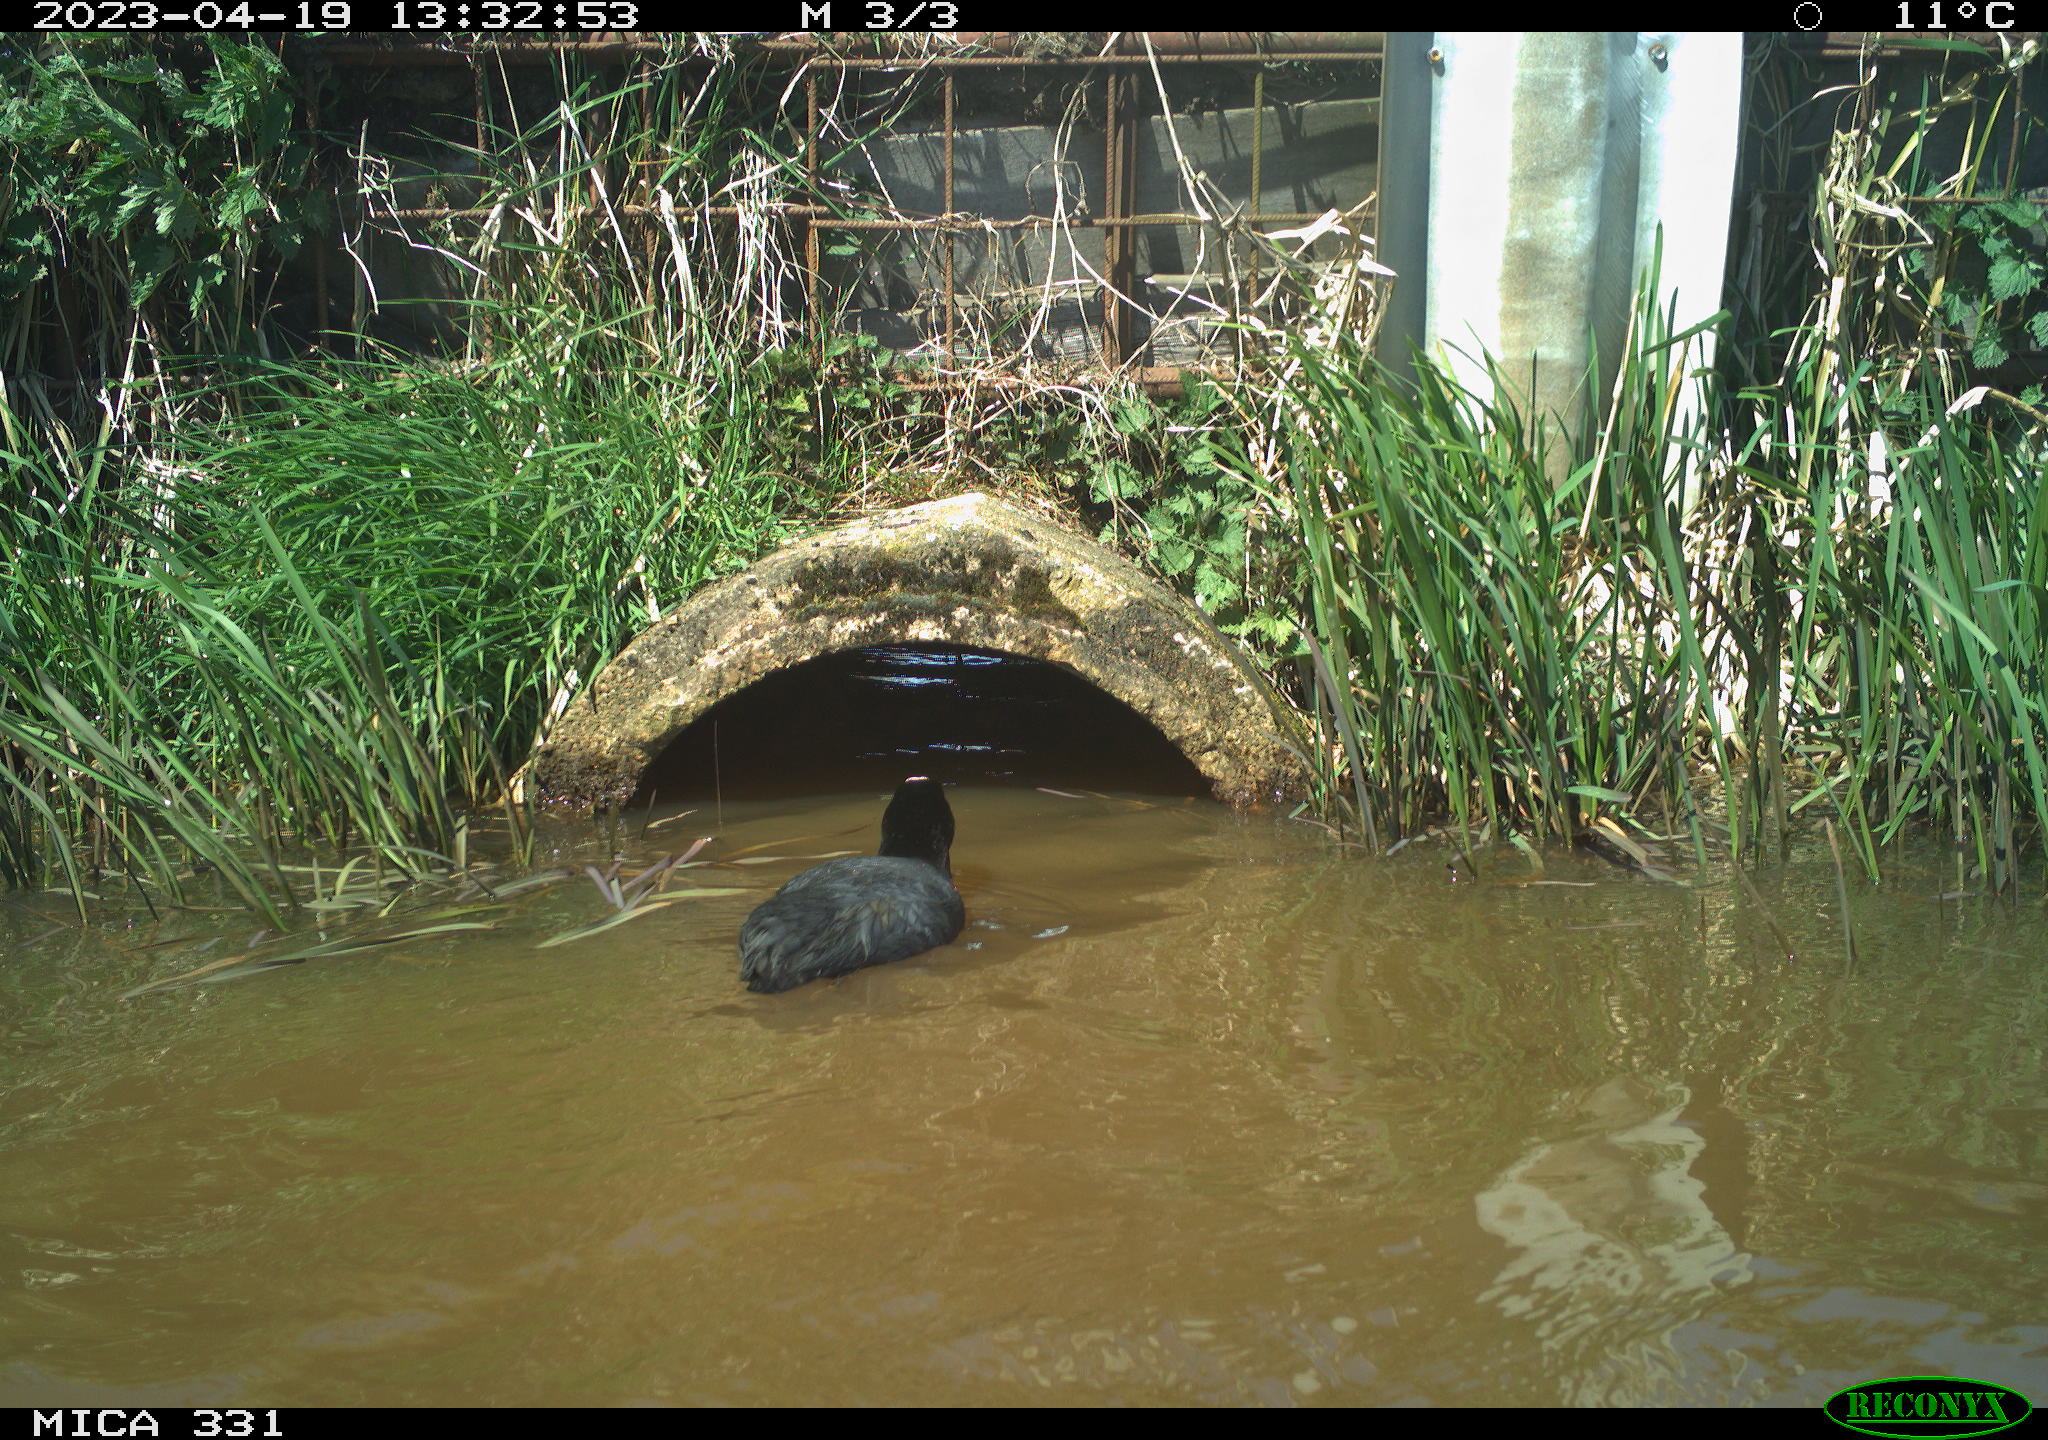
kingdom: Animalia
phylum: Chordata
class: Aves
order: Gruiformes
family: Rallidae
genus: Fulica
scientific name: Fulica atra
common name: Eurasian coot
